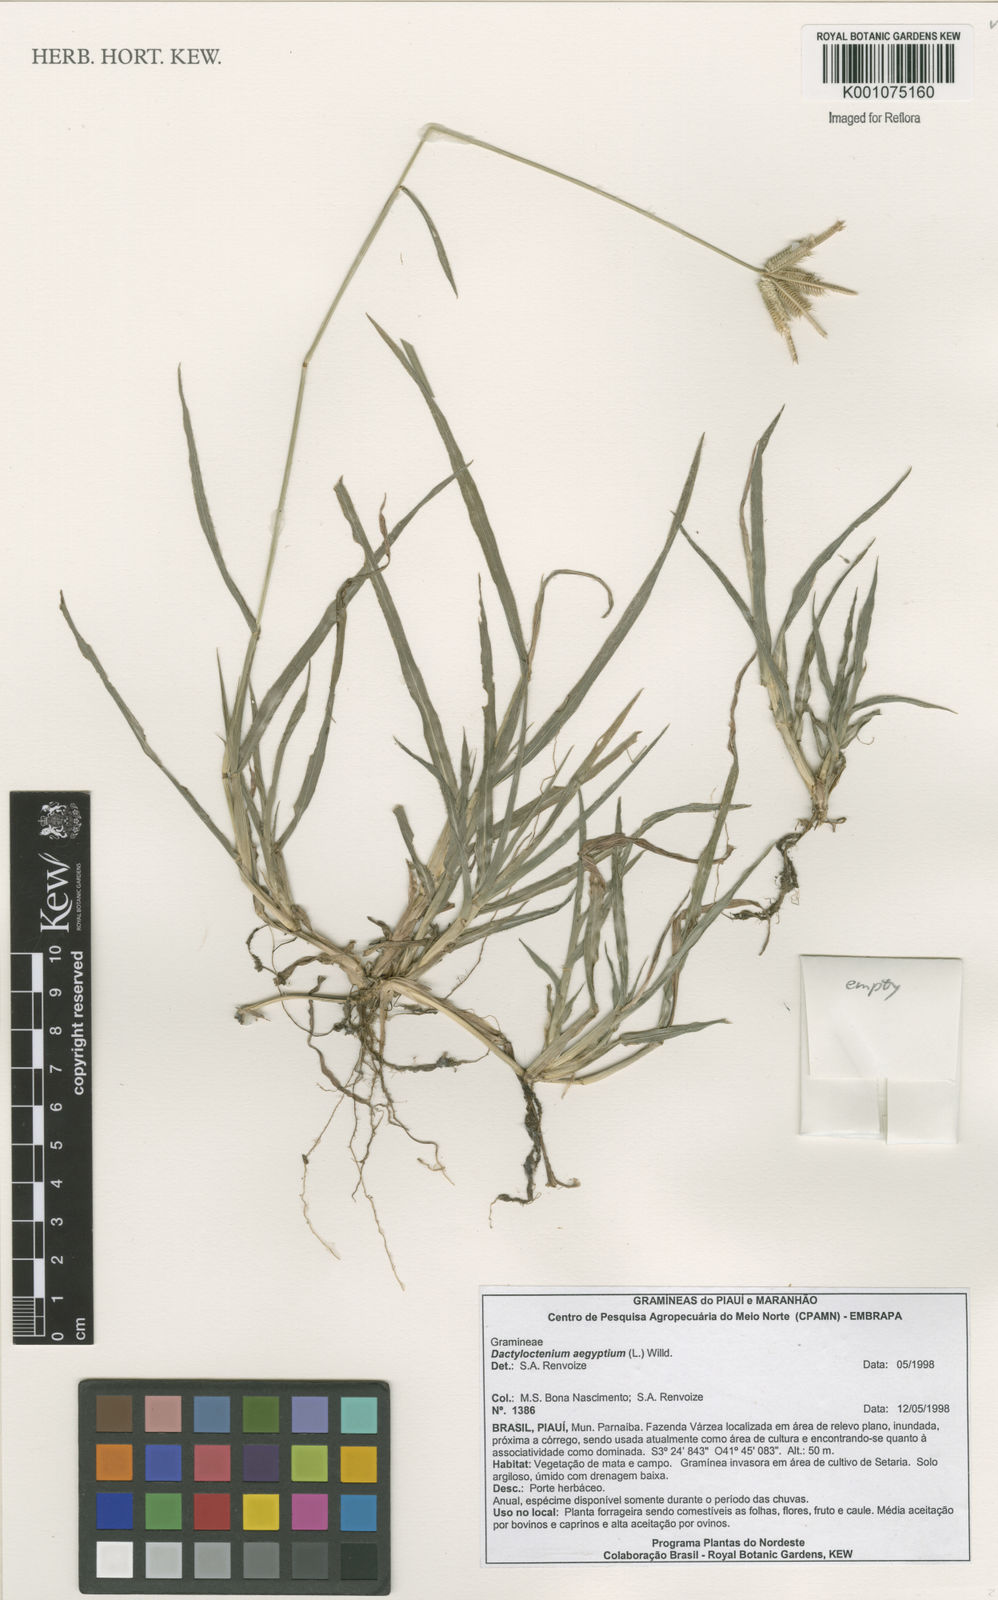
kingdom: Plantae
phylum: Tracheophyta
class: Liliopsida
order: Poales
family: Poaceae
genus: Dactyloctenium
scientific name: Dactyloctenium aegyptium
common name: Egyptian grass
